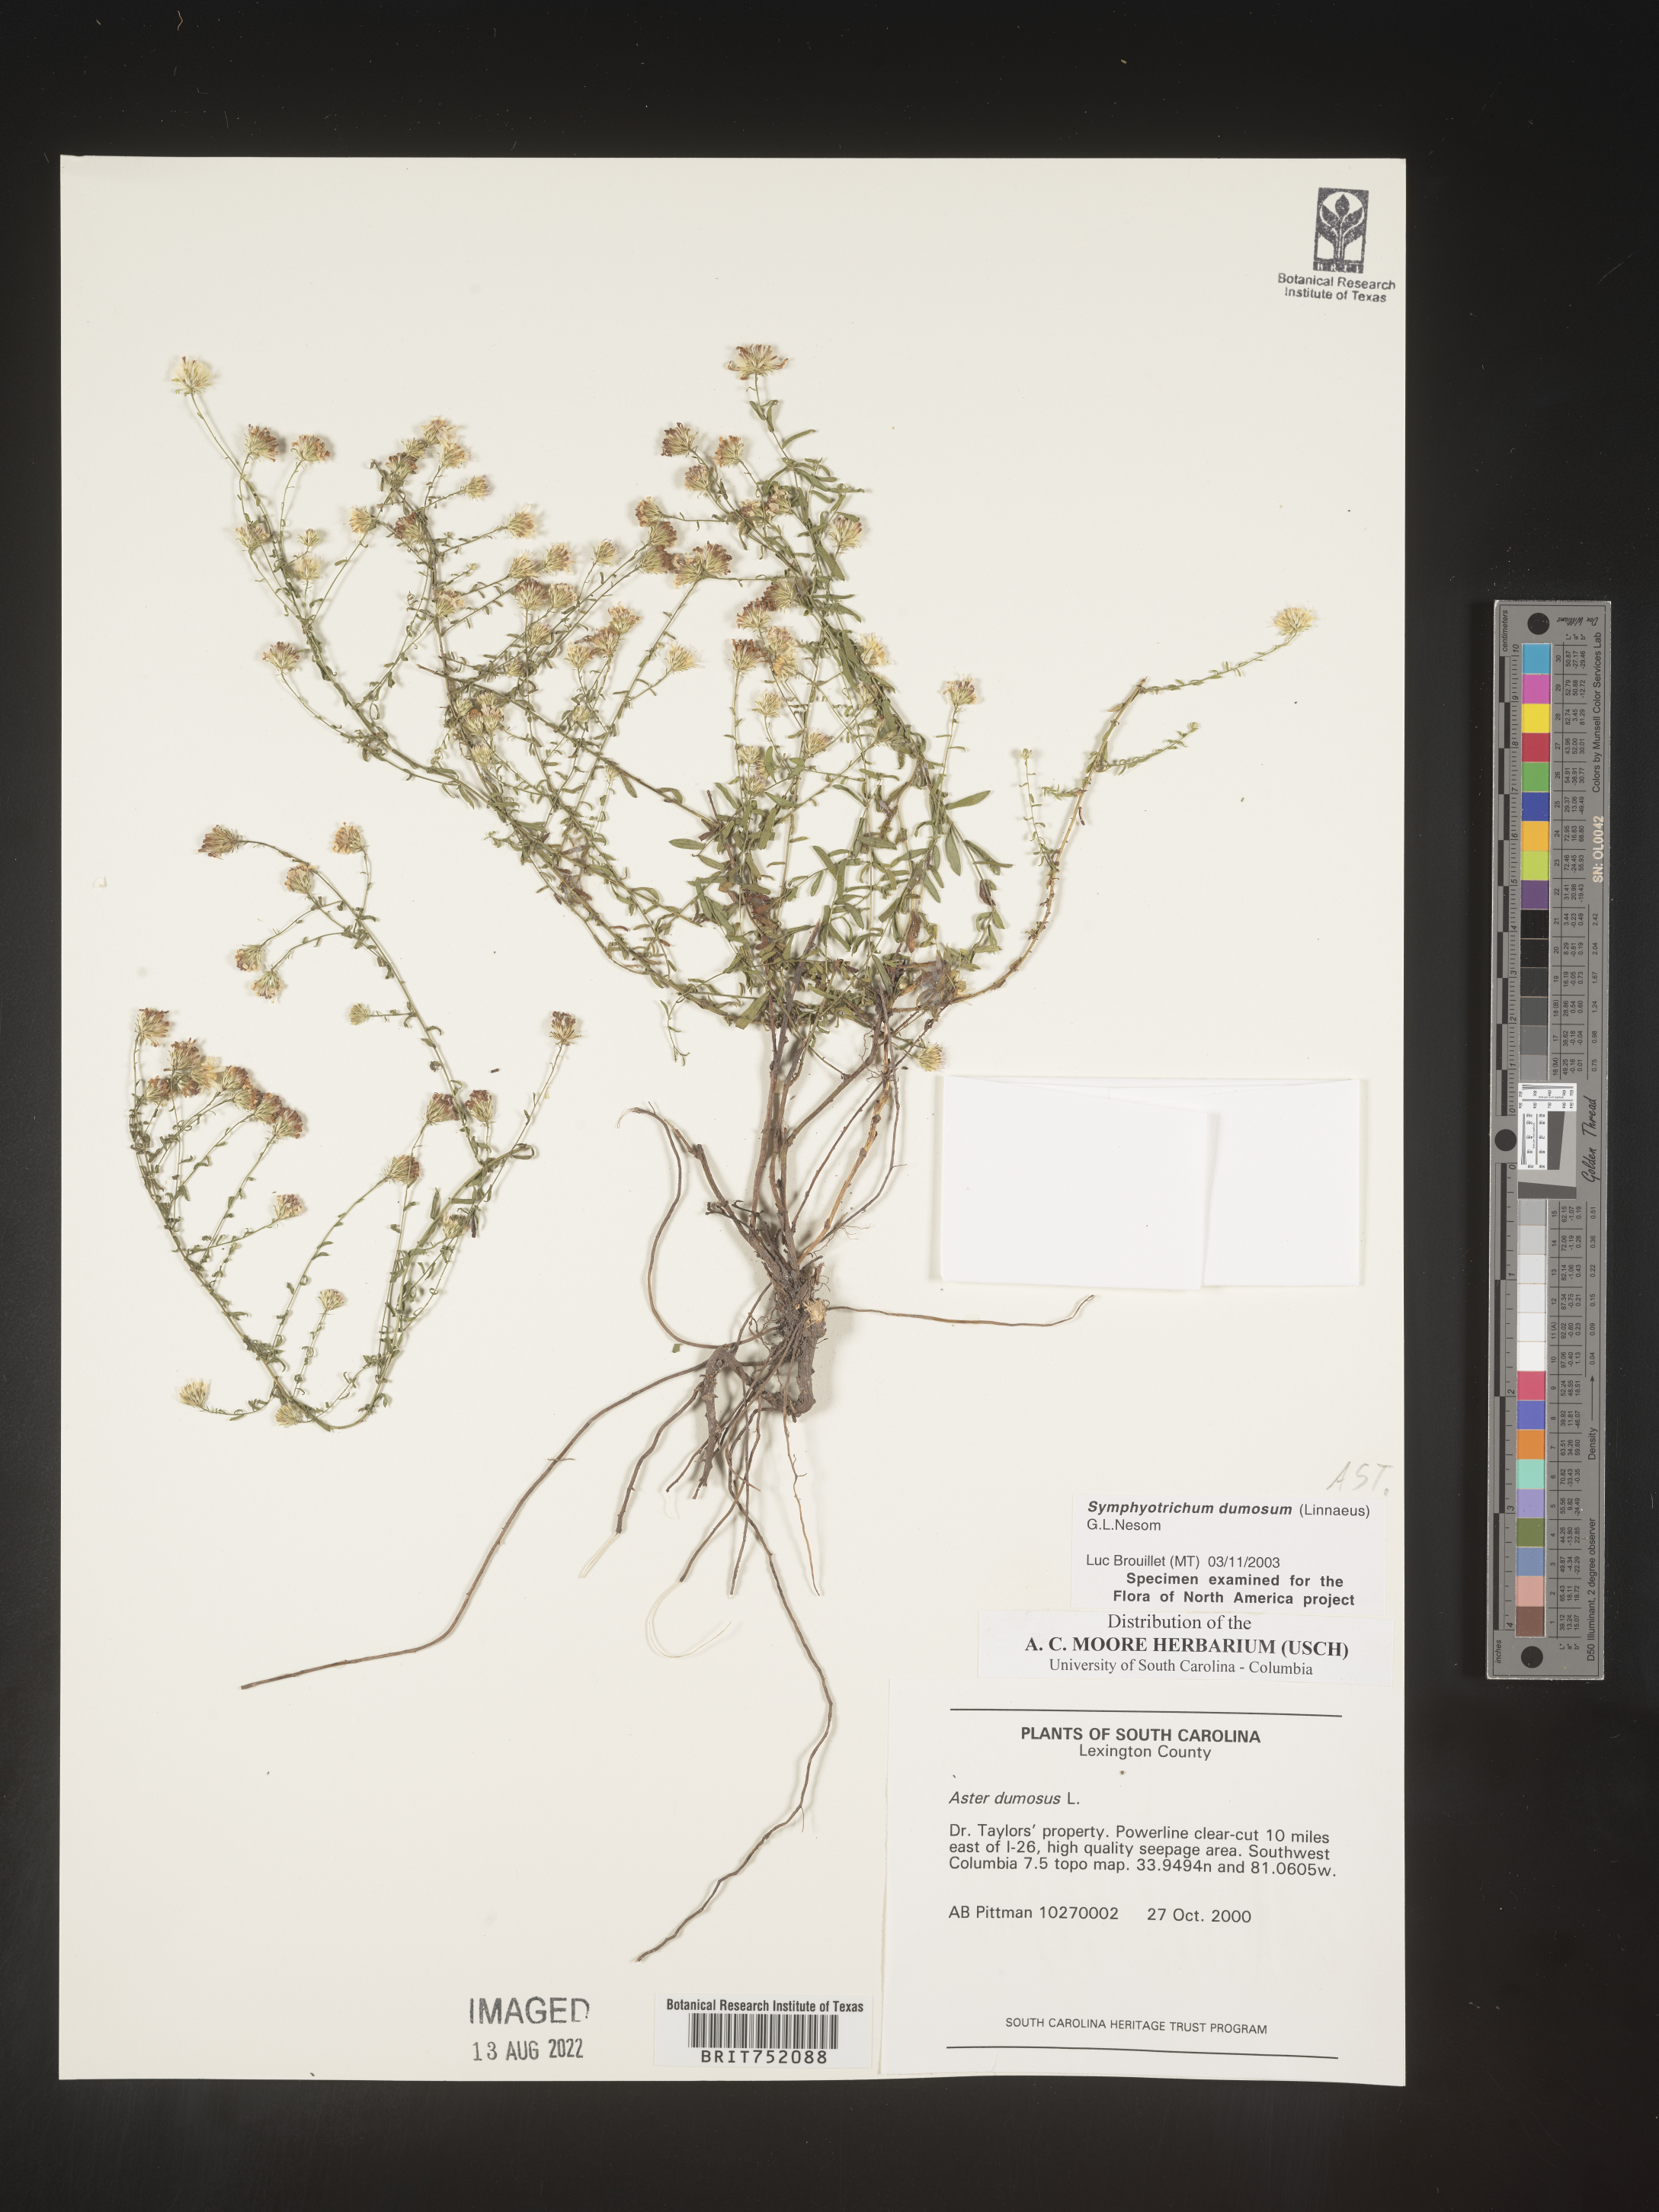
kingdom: Plantae
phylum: Tracheophyta
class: Magnoliopsida
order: Asterales
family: Asteraceae
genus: Symphyotrichum
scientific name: Symphyotrichum dumosum
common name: Bushy aster
